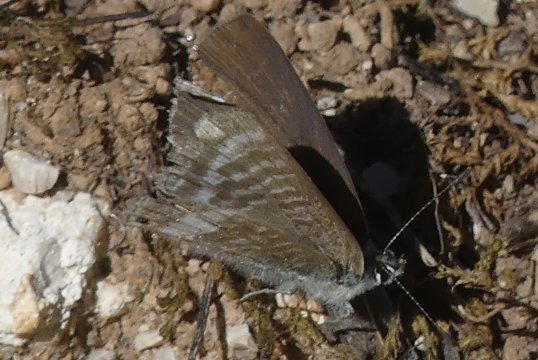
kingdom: Animalia
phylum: Arthropoda
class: Insecta
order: Lepidoptera
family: Lycaenidae
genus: Lampides
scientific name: Lampides boeticus
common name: Pea Blue
